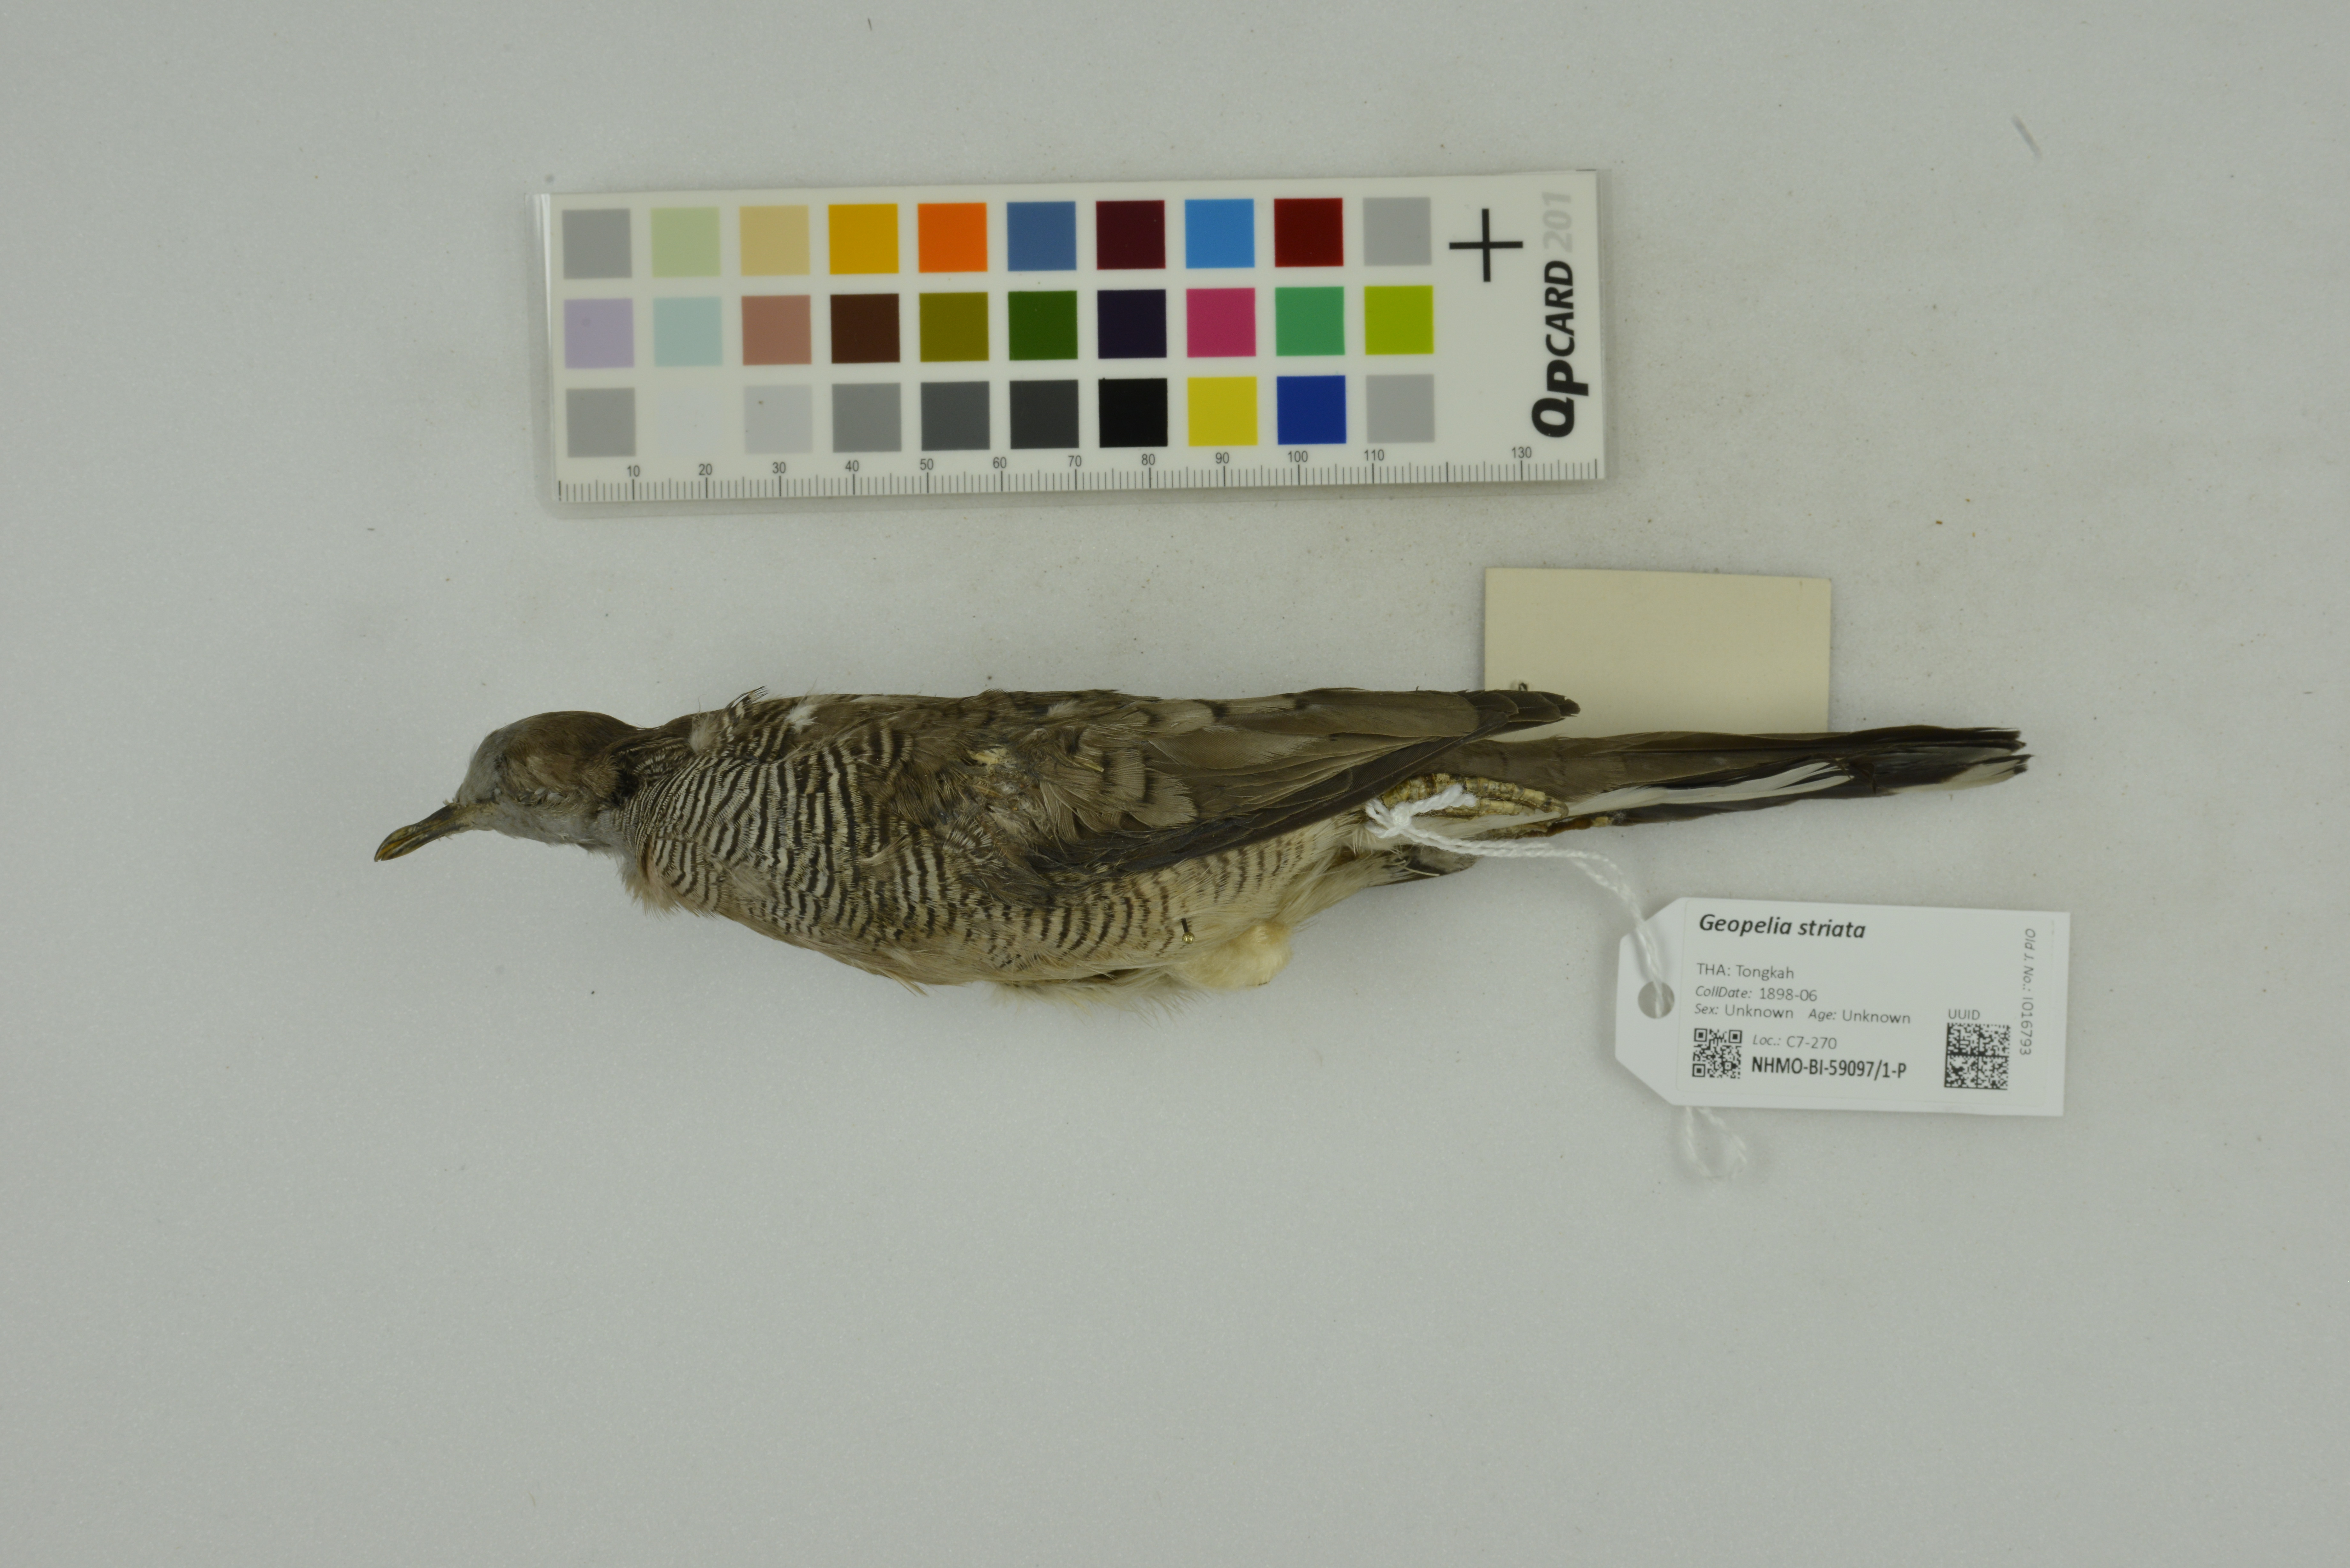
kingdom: Animalia
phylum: Chordata
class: Aves
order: Columbiformes
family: Columbidae
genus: Geopelia
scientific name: Geopelia striata
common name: Zebra dove
